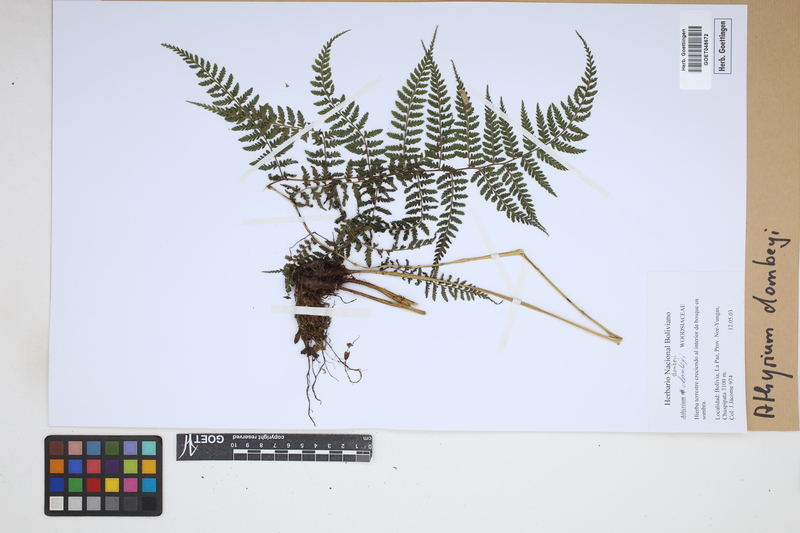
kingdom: Plantae
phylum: Tracheophyta
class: Polypodiopsida
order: Polypodiales
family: Athyriaceae
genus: Athyrium
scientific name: Athyrium dombeyi
